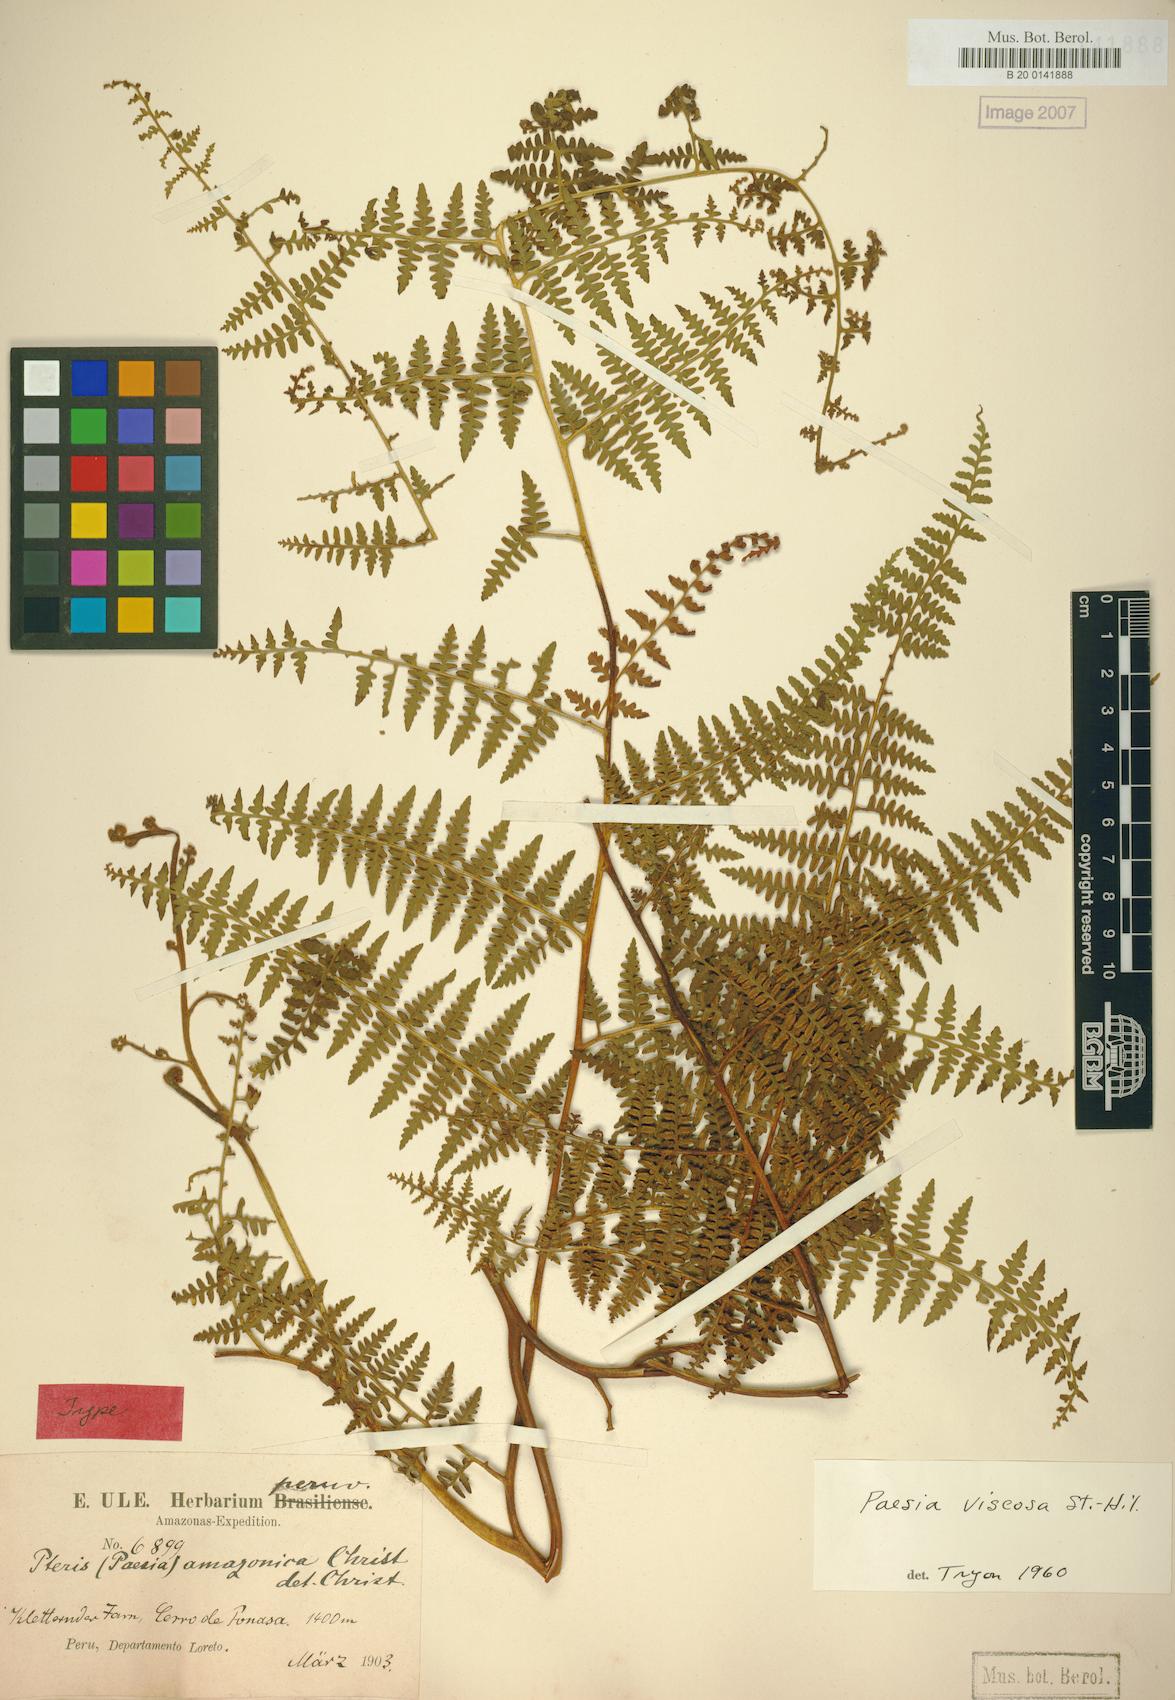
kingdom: Plantae
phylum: Tracheophyta
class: Polypodiopsida
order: Polypodiales
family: Dennstaedtiaceae
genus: Paesia
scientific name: Paesia glandulosa
